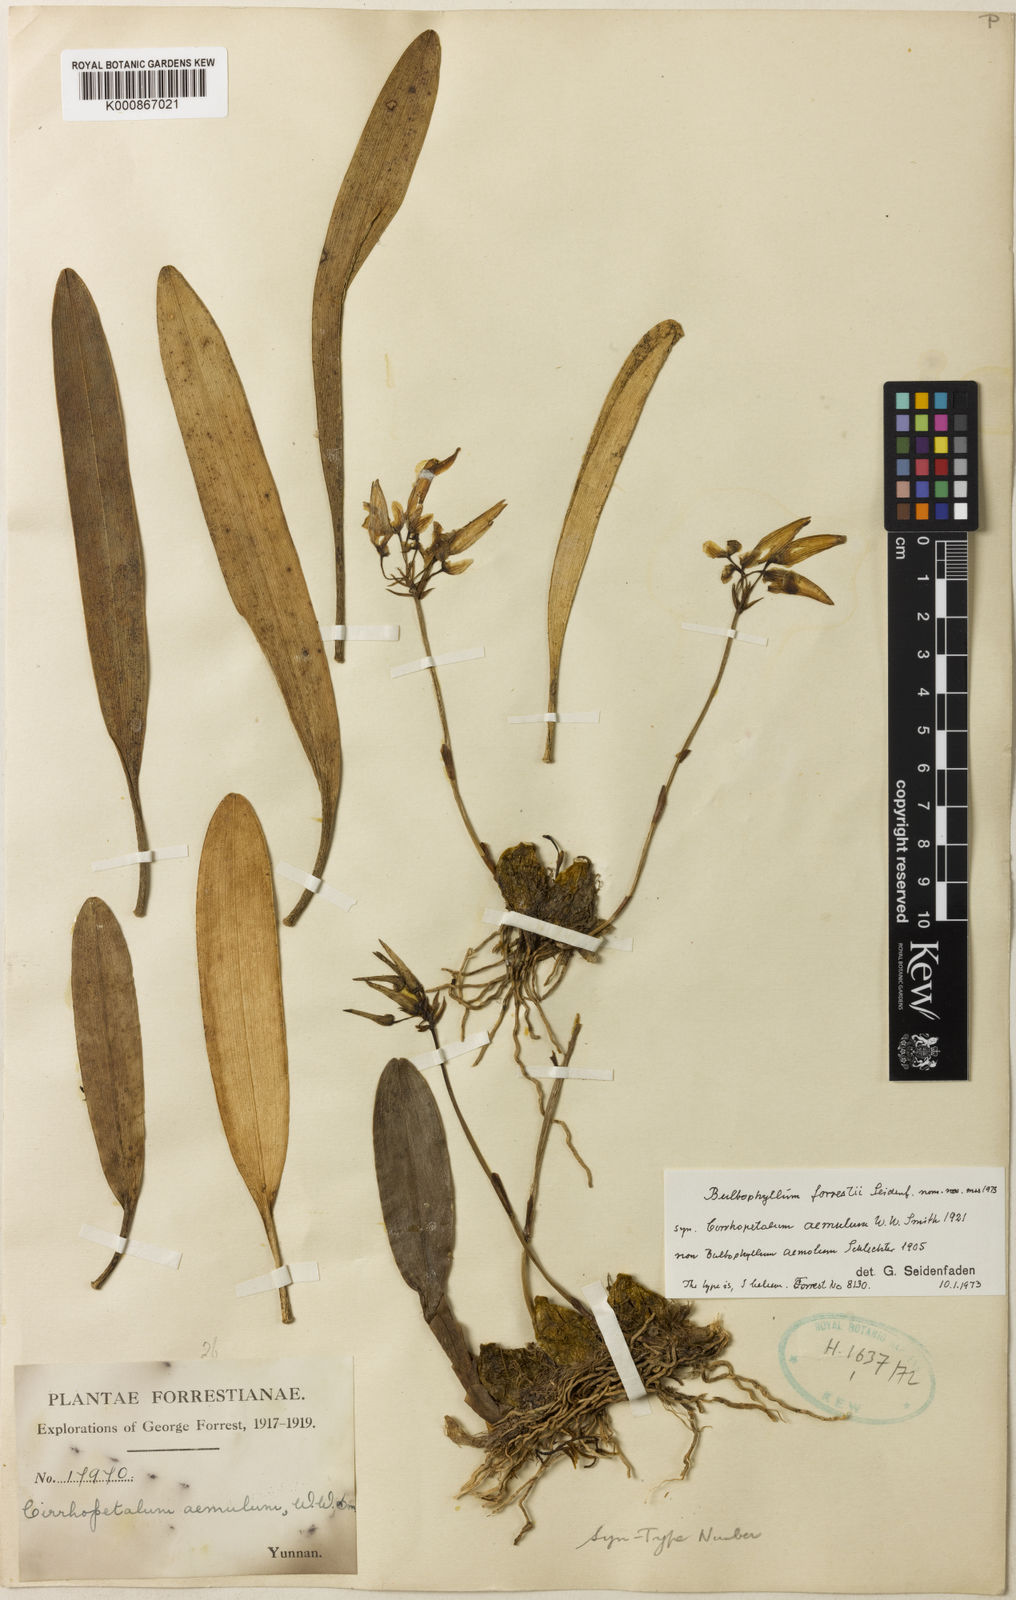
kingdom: Plantae
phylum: Tracheophyta
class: Liliopsida
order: Asparagales
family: Orchidaceae
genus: Bulbophyllum
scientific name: Bulbophyllum forrestii
